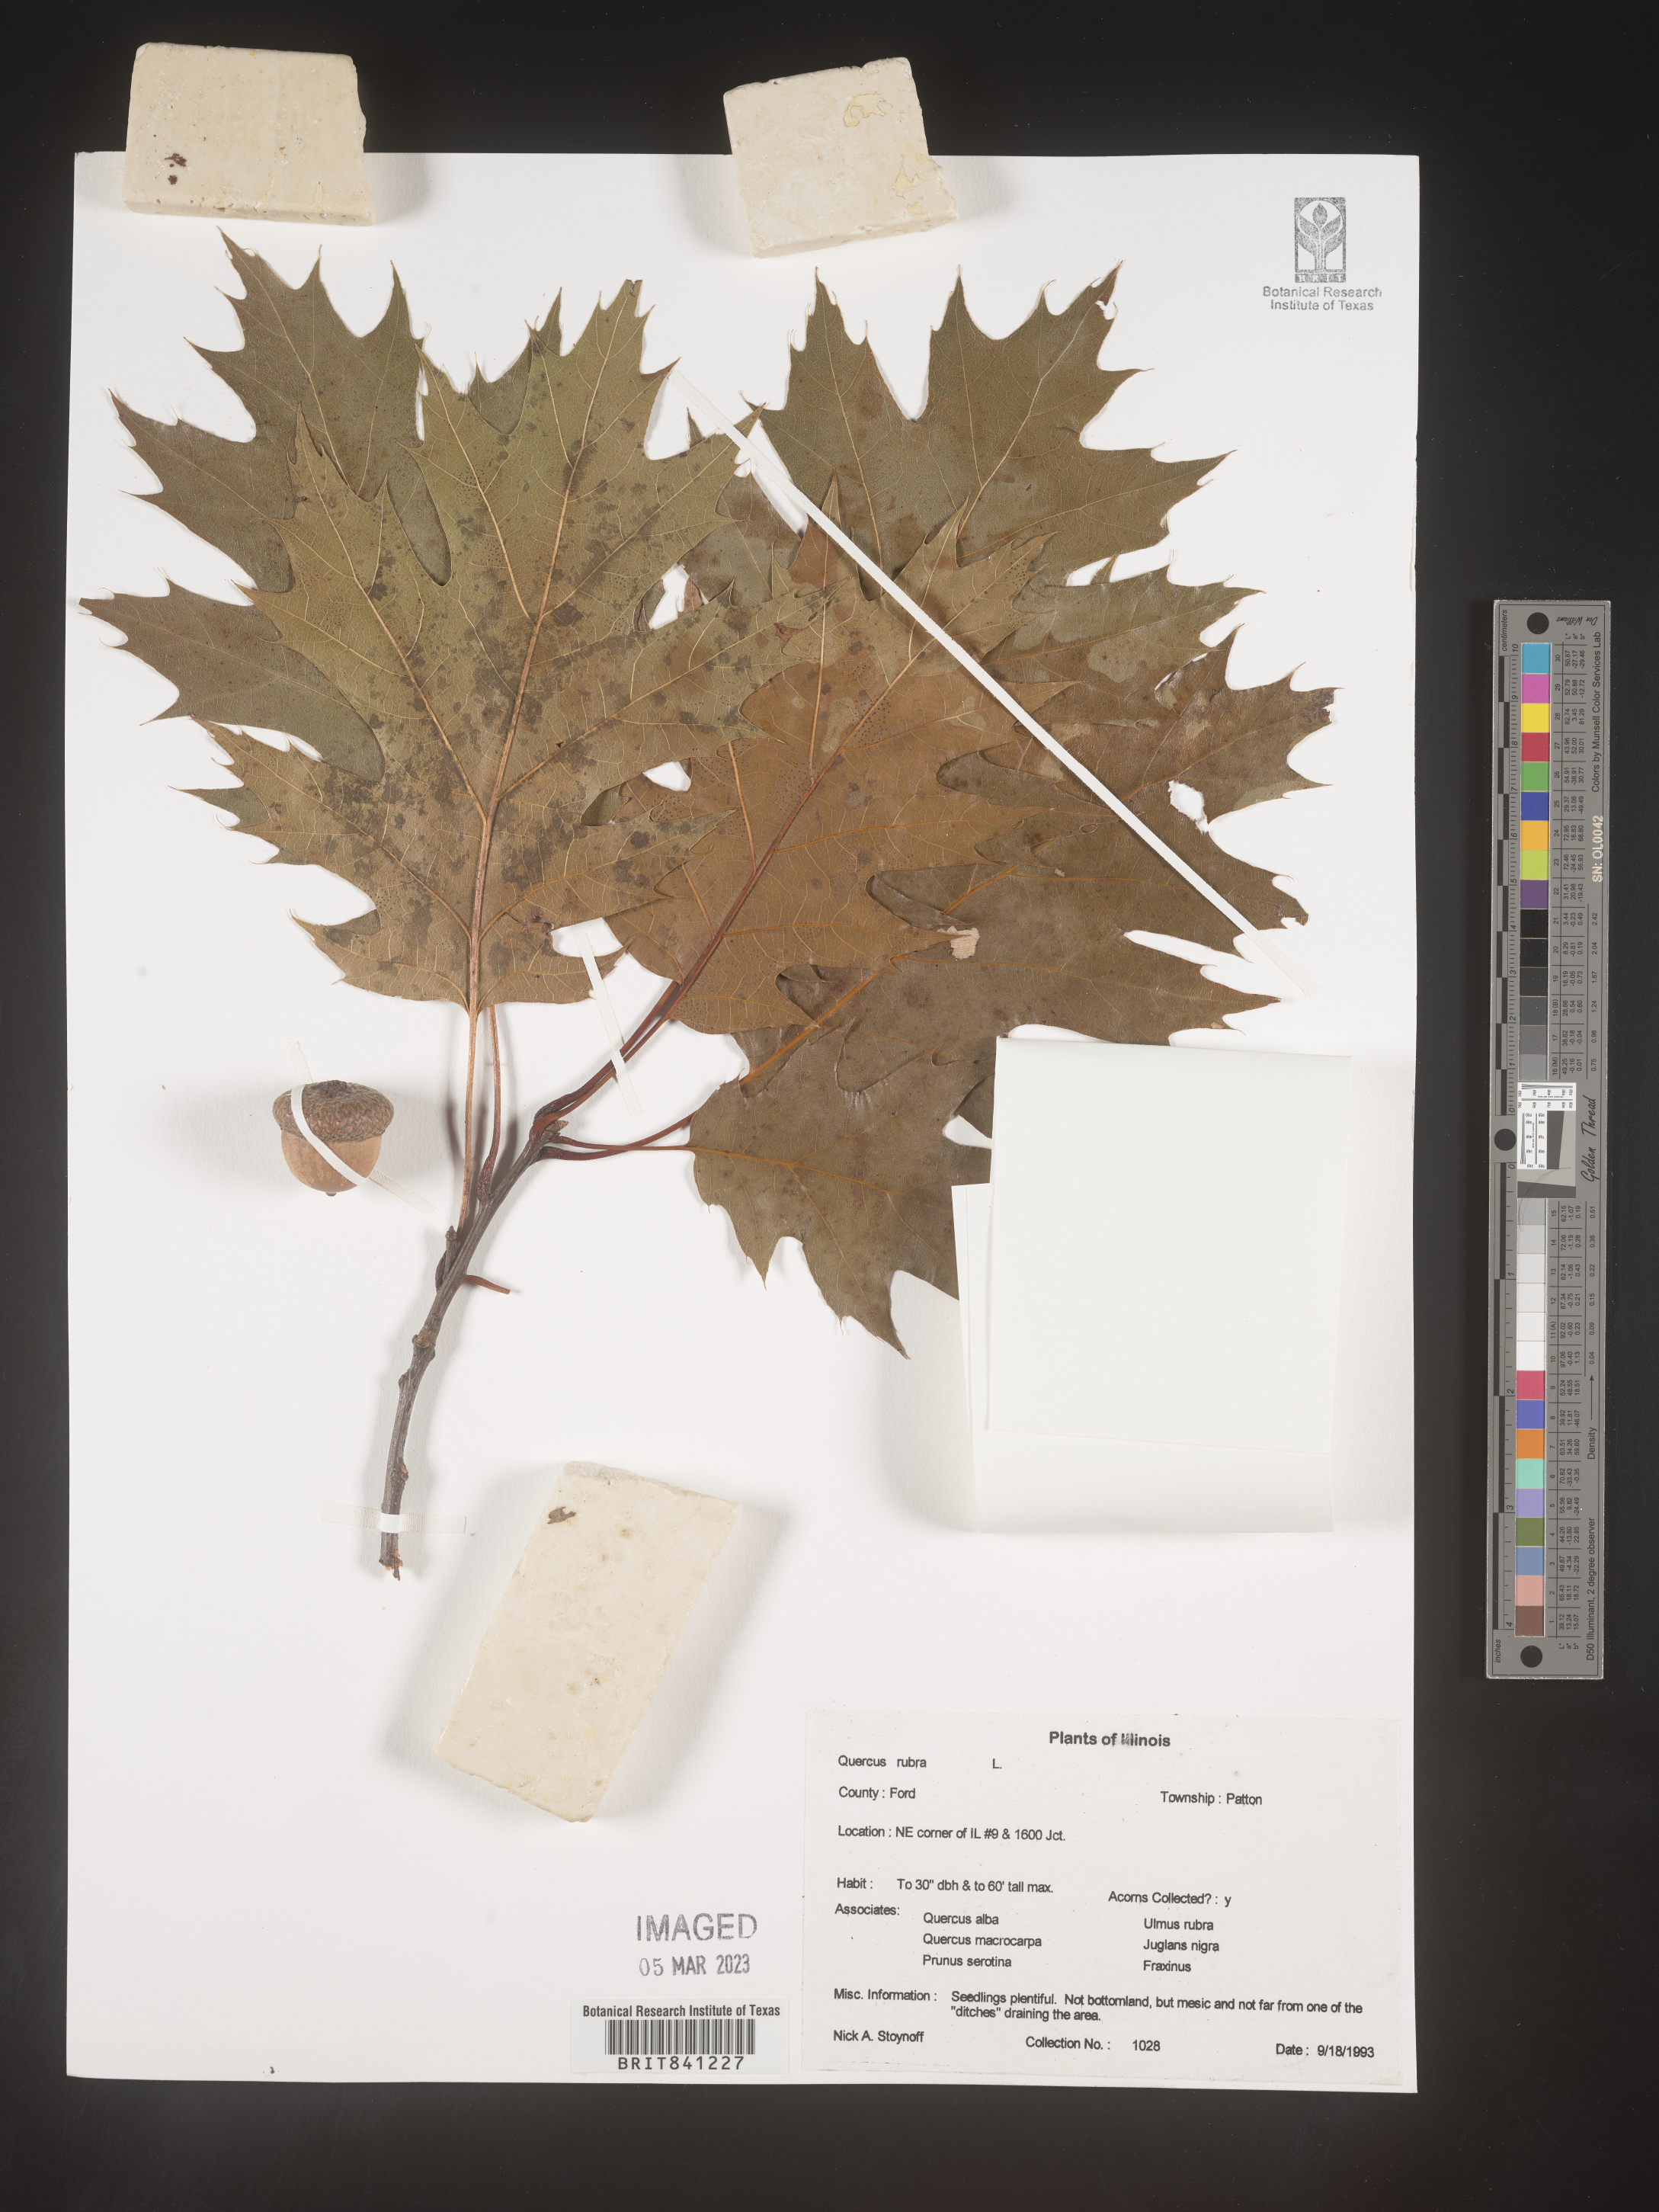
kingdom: Plantae
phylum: Tracheophyta
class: Magnoliopsida
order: Fagales
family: Fagaceae
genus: Quercus
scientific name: Quercus rubra
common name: Red oak
